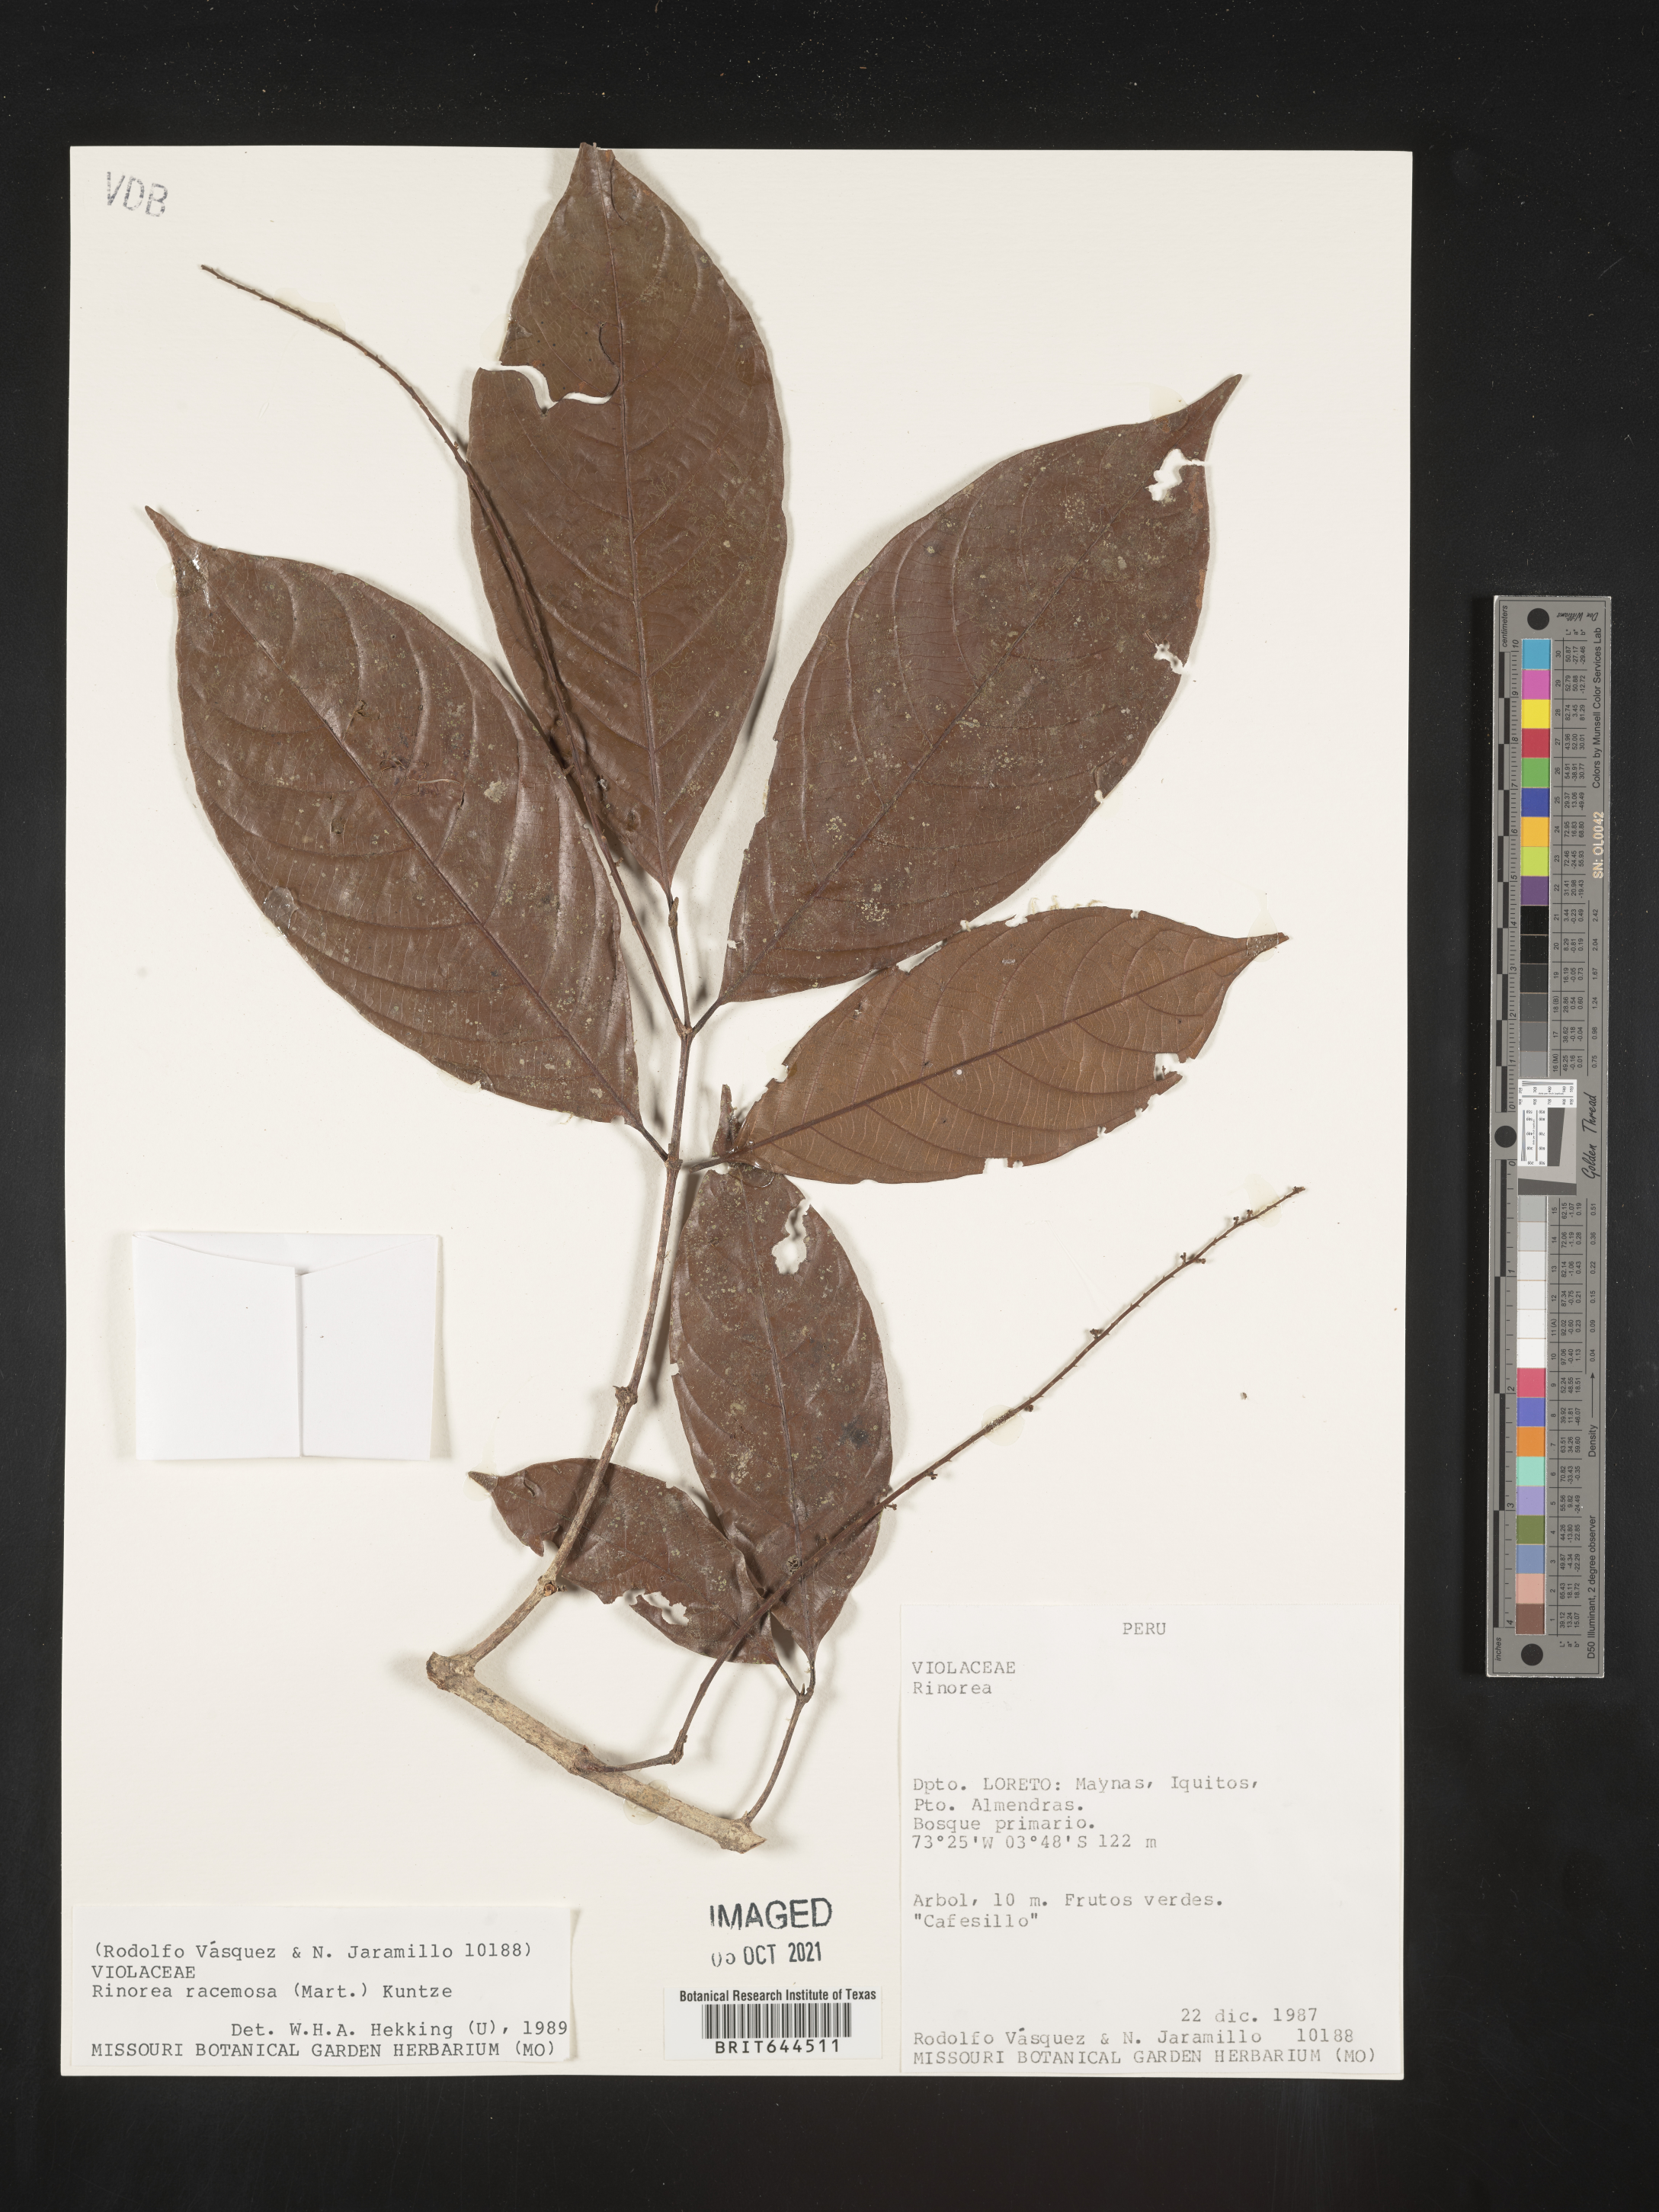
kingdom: Plantae
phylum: Tracheophyta
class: Magnoliopsida
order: Malpighiales
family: Violaceae
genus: Rinorea
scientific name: Rinorea
